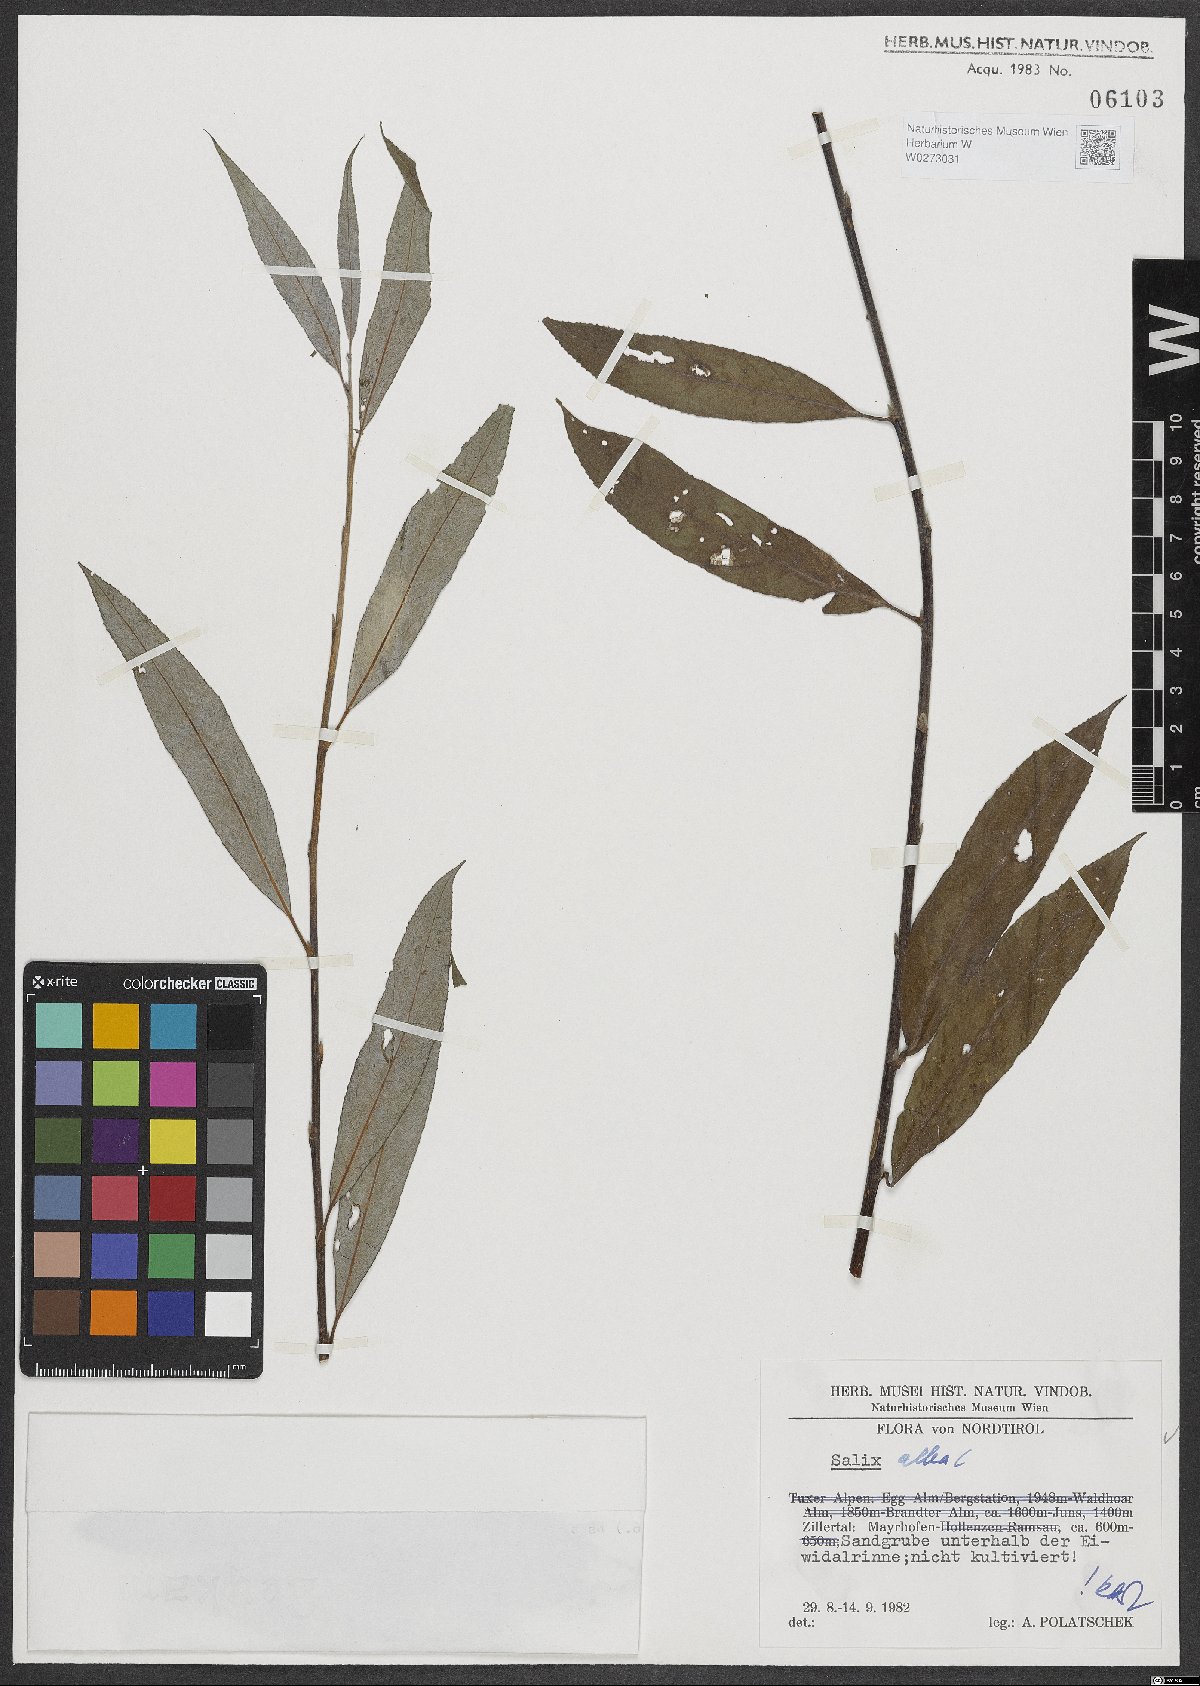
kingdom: Plantae
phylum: Tracheophyta
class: Magnoliopsida
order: Malpighiales
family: Salicaceae
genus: Salix
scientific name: Salix alba
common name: White willow
